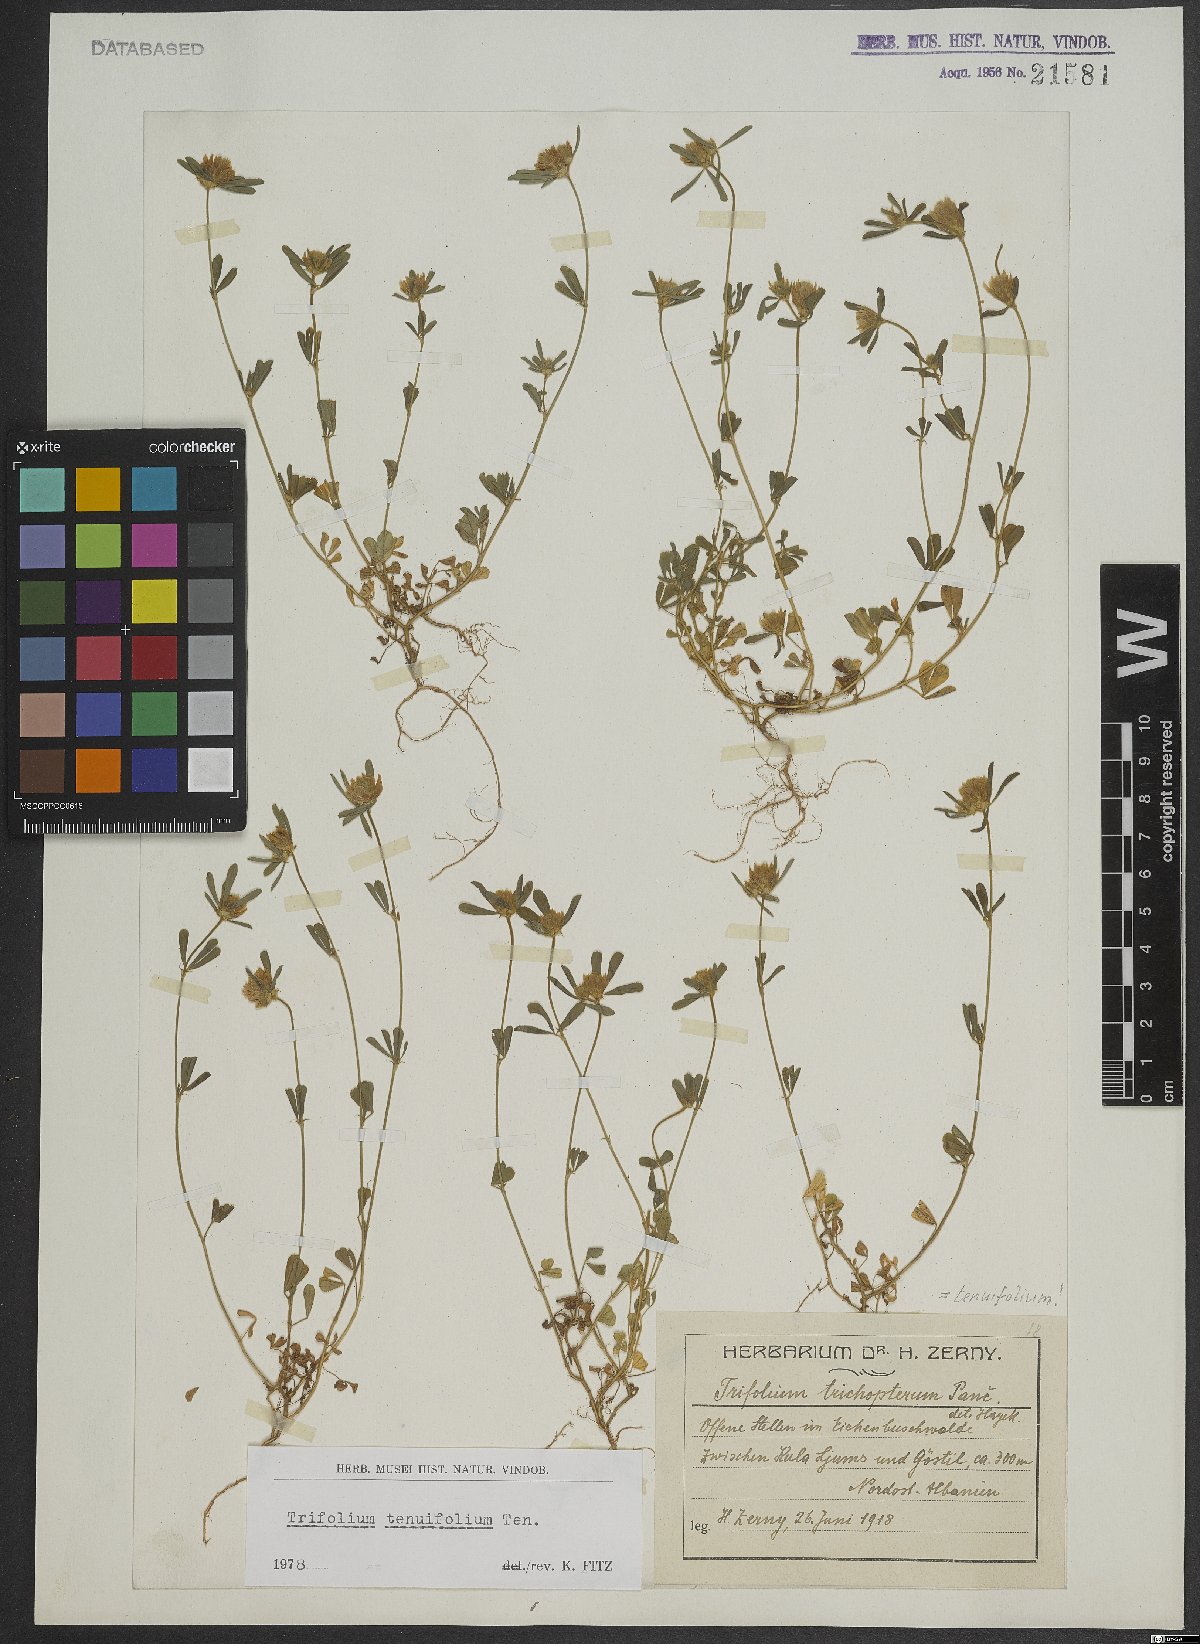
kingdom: Plantae
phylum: Tracheophyta
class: Magnoliopsida
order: Fabales
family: Fabaceae
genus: Trifolium
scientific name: Trifolium tenuifolium
